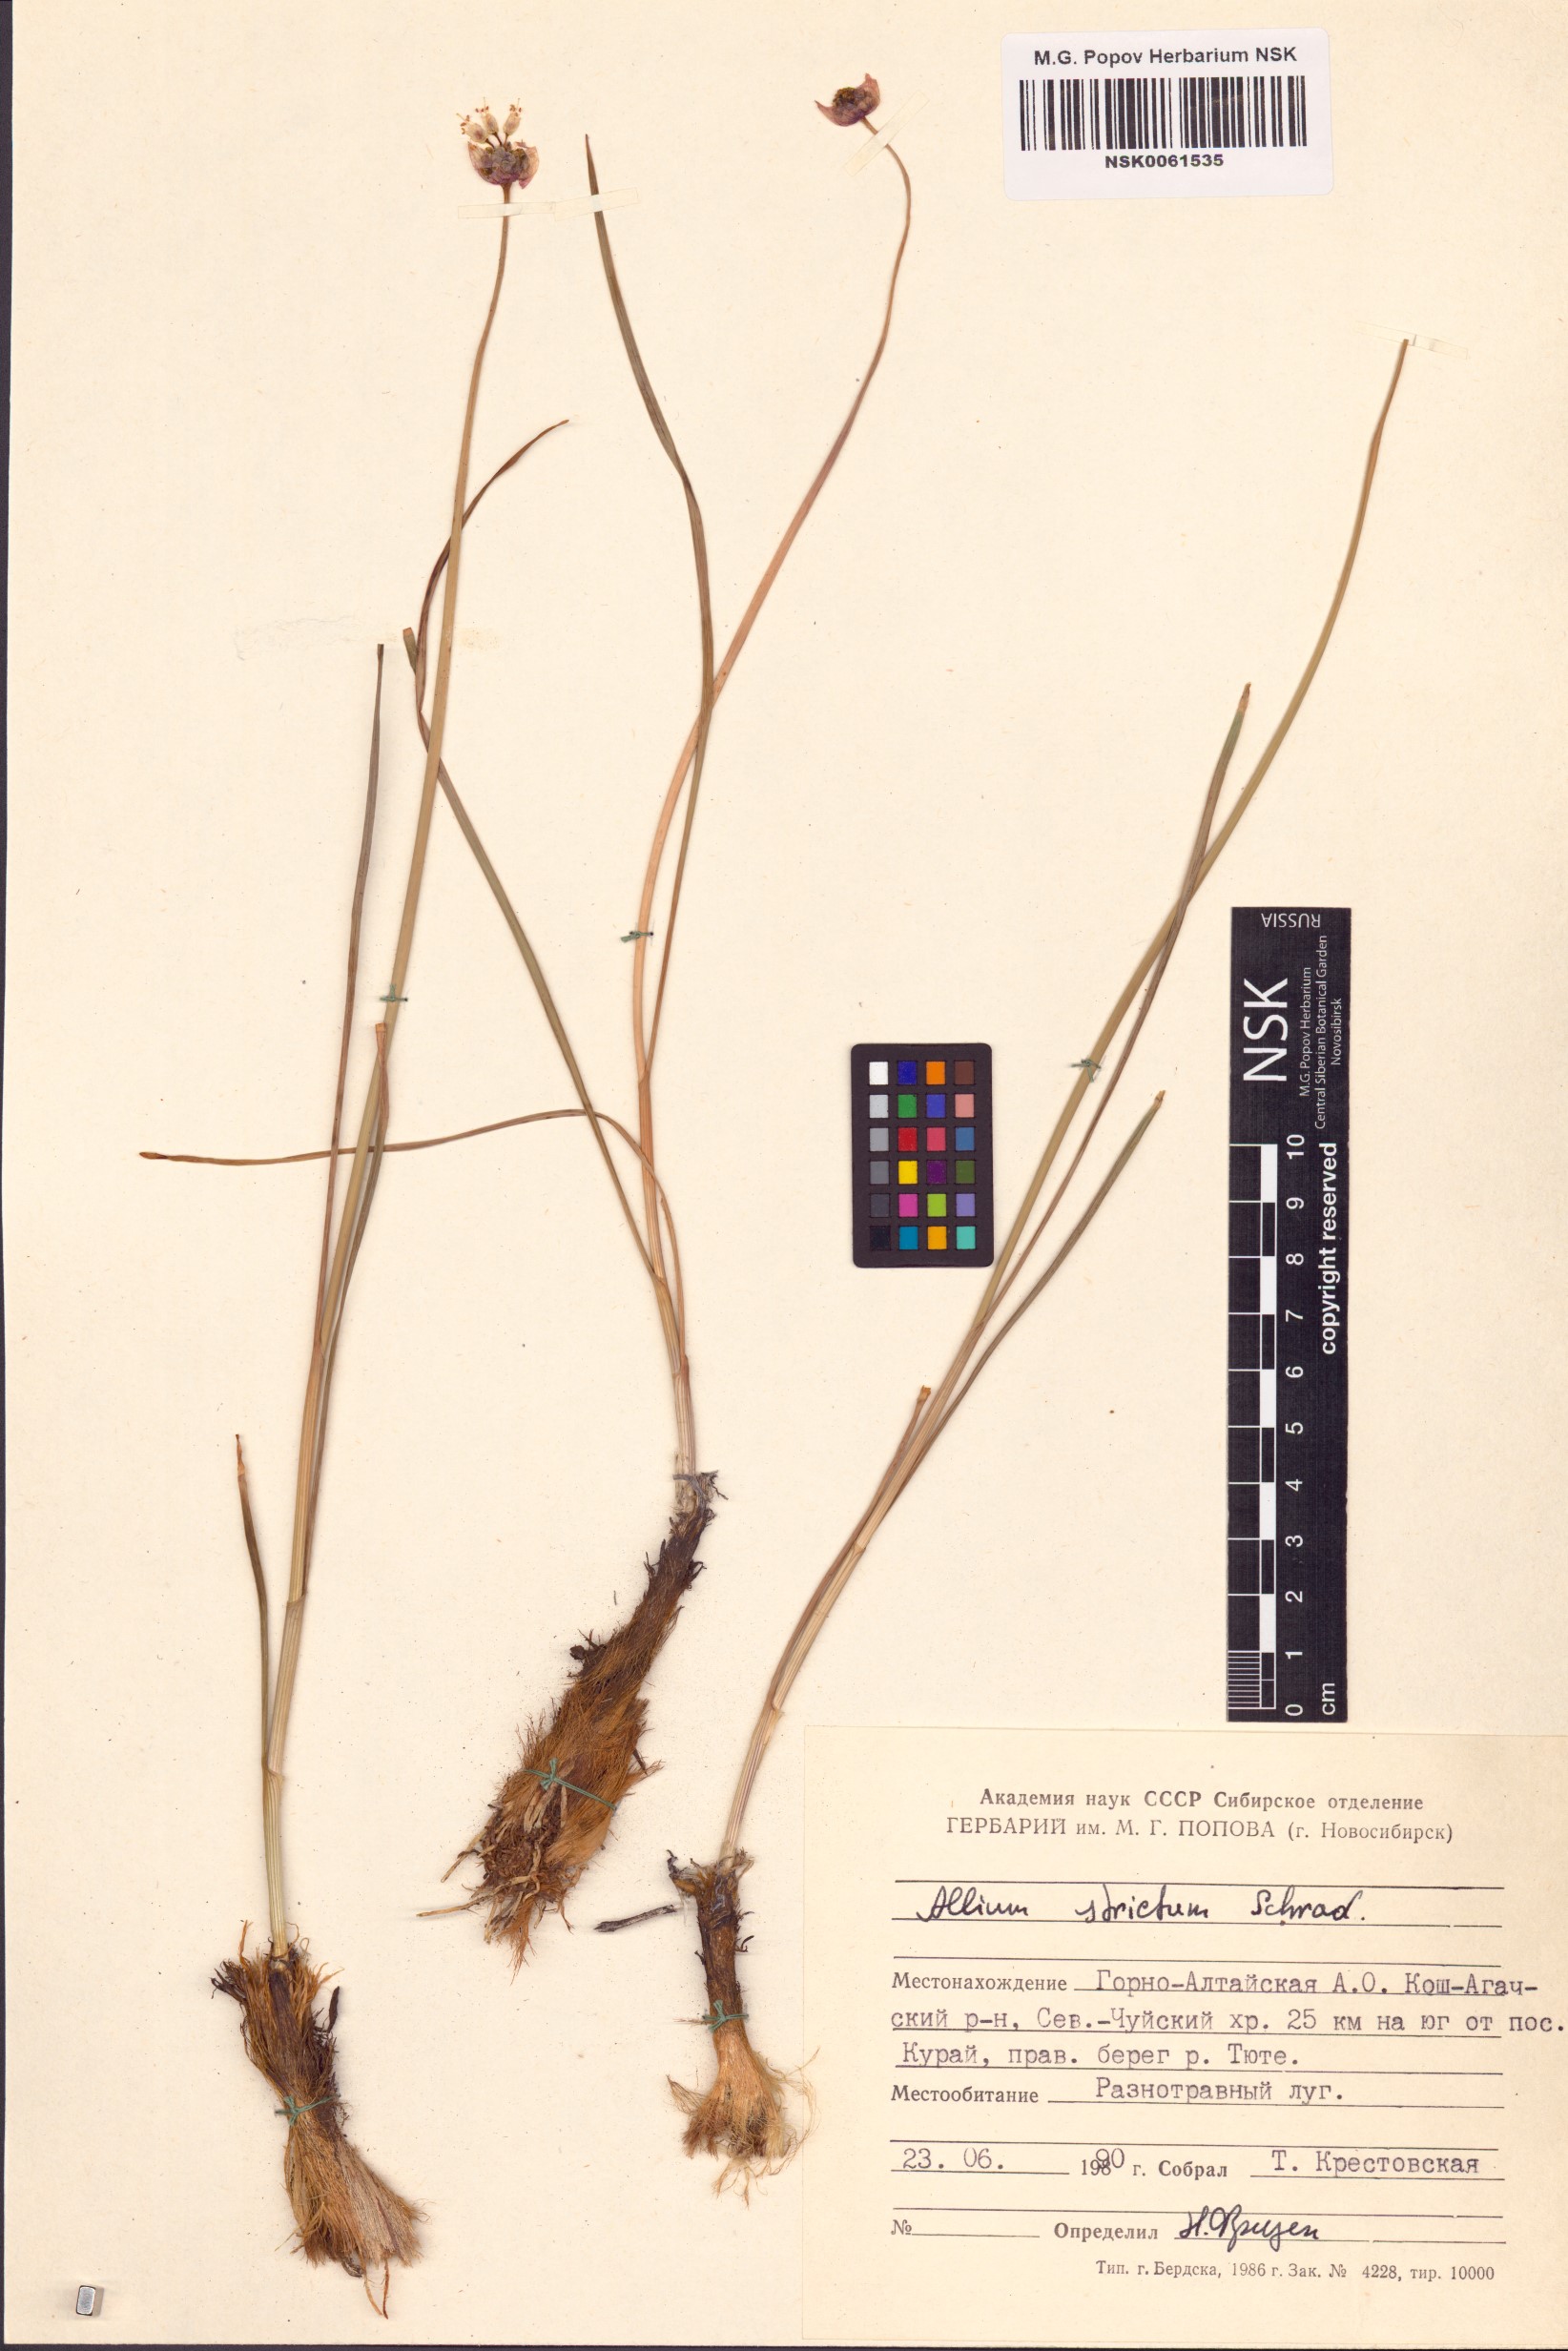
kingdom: Plantae
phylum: Tracheophyta
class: Liliopsida
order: Asparagales
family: Amaryllidaceae
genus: Allium
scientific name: Allium strictum
